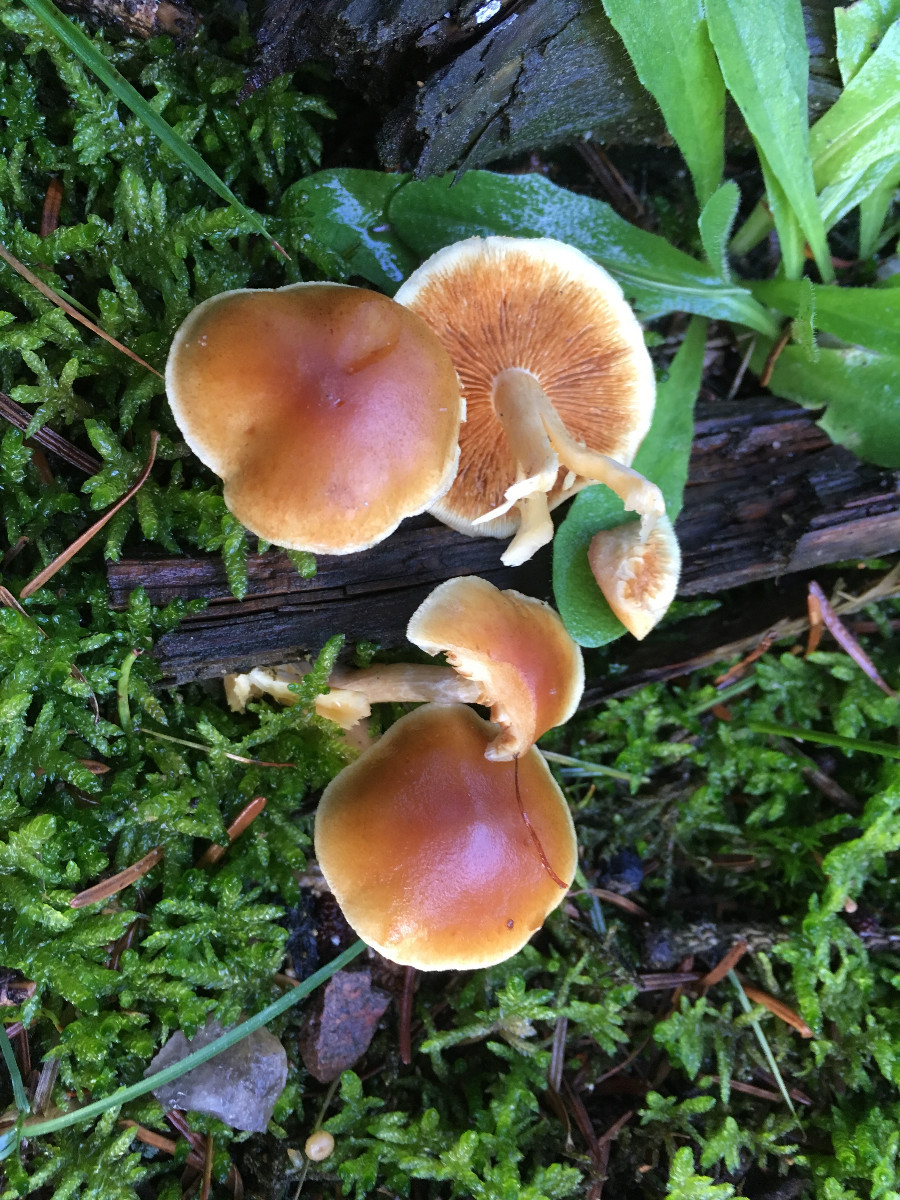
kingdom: Fungi
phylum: Basidiomycota
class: Agaricomycetes
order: Agaricales
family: Hymenogastraceae
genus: Gymnopilus
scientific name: Gymnopilus penetrans
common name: plettet flammehat
